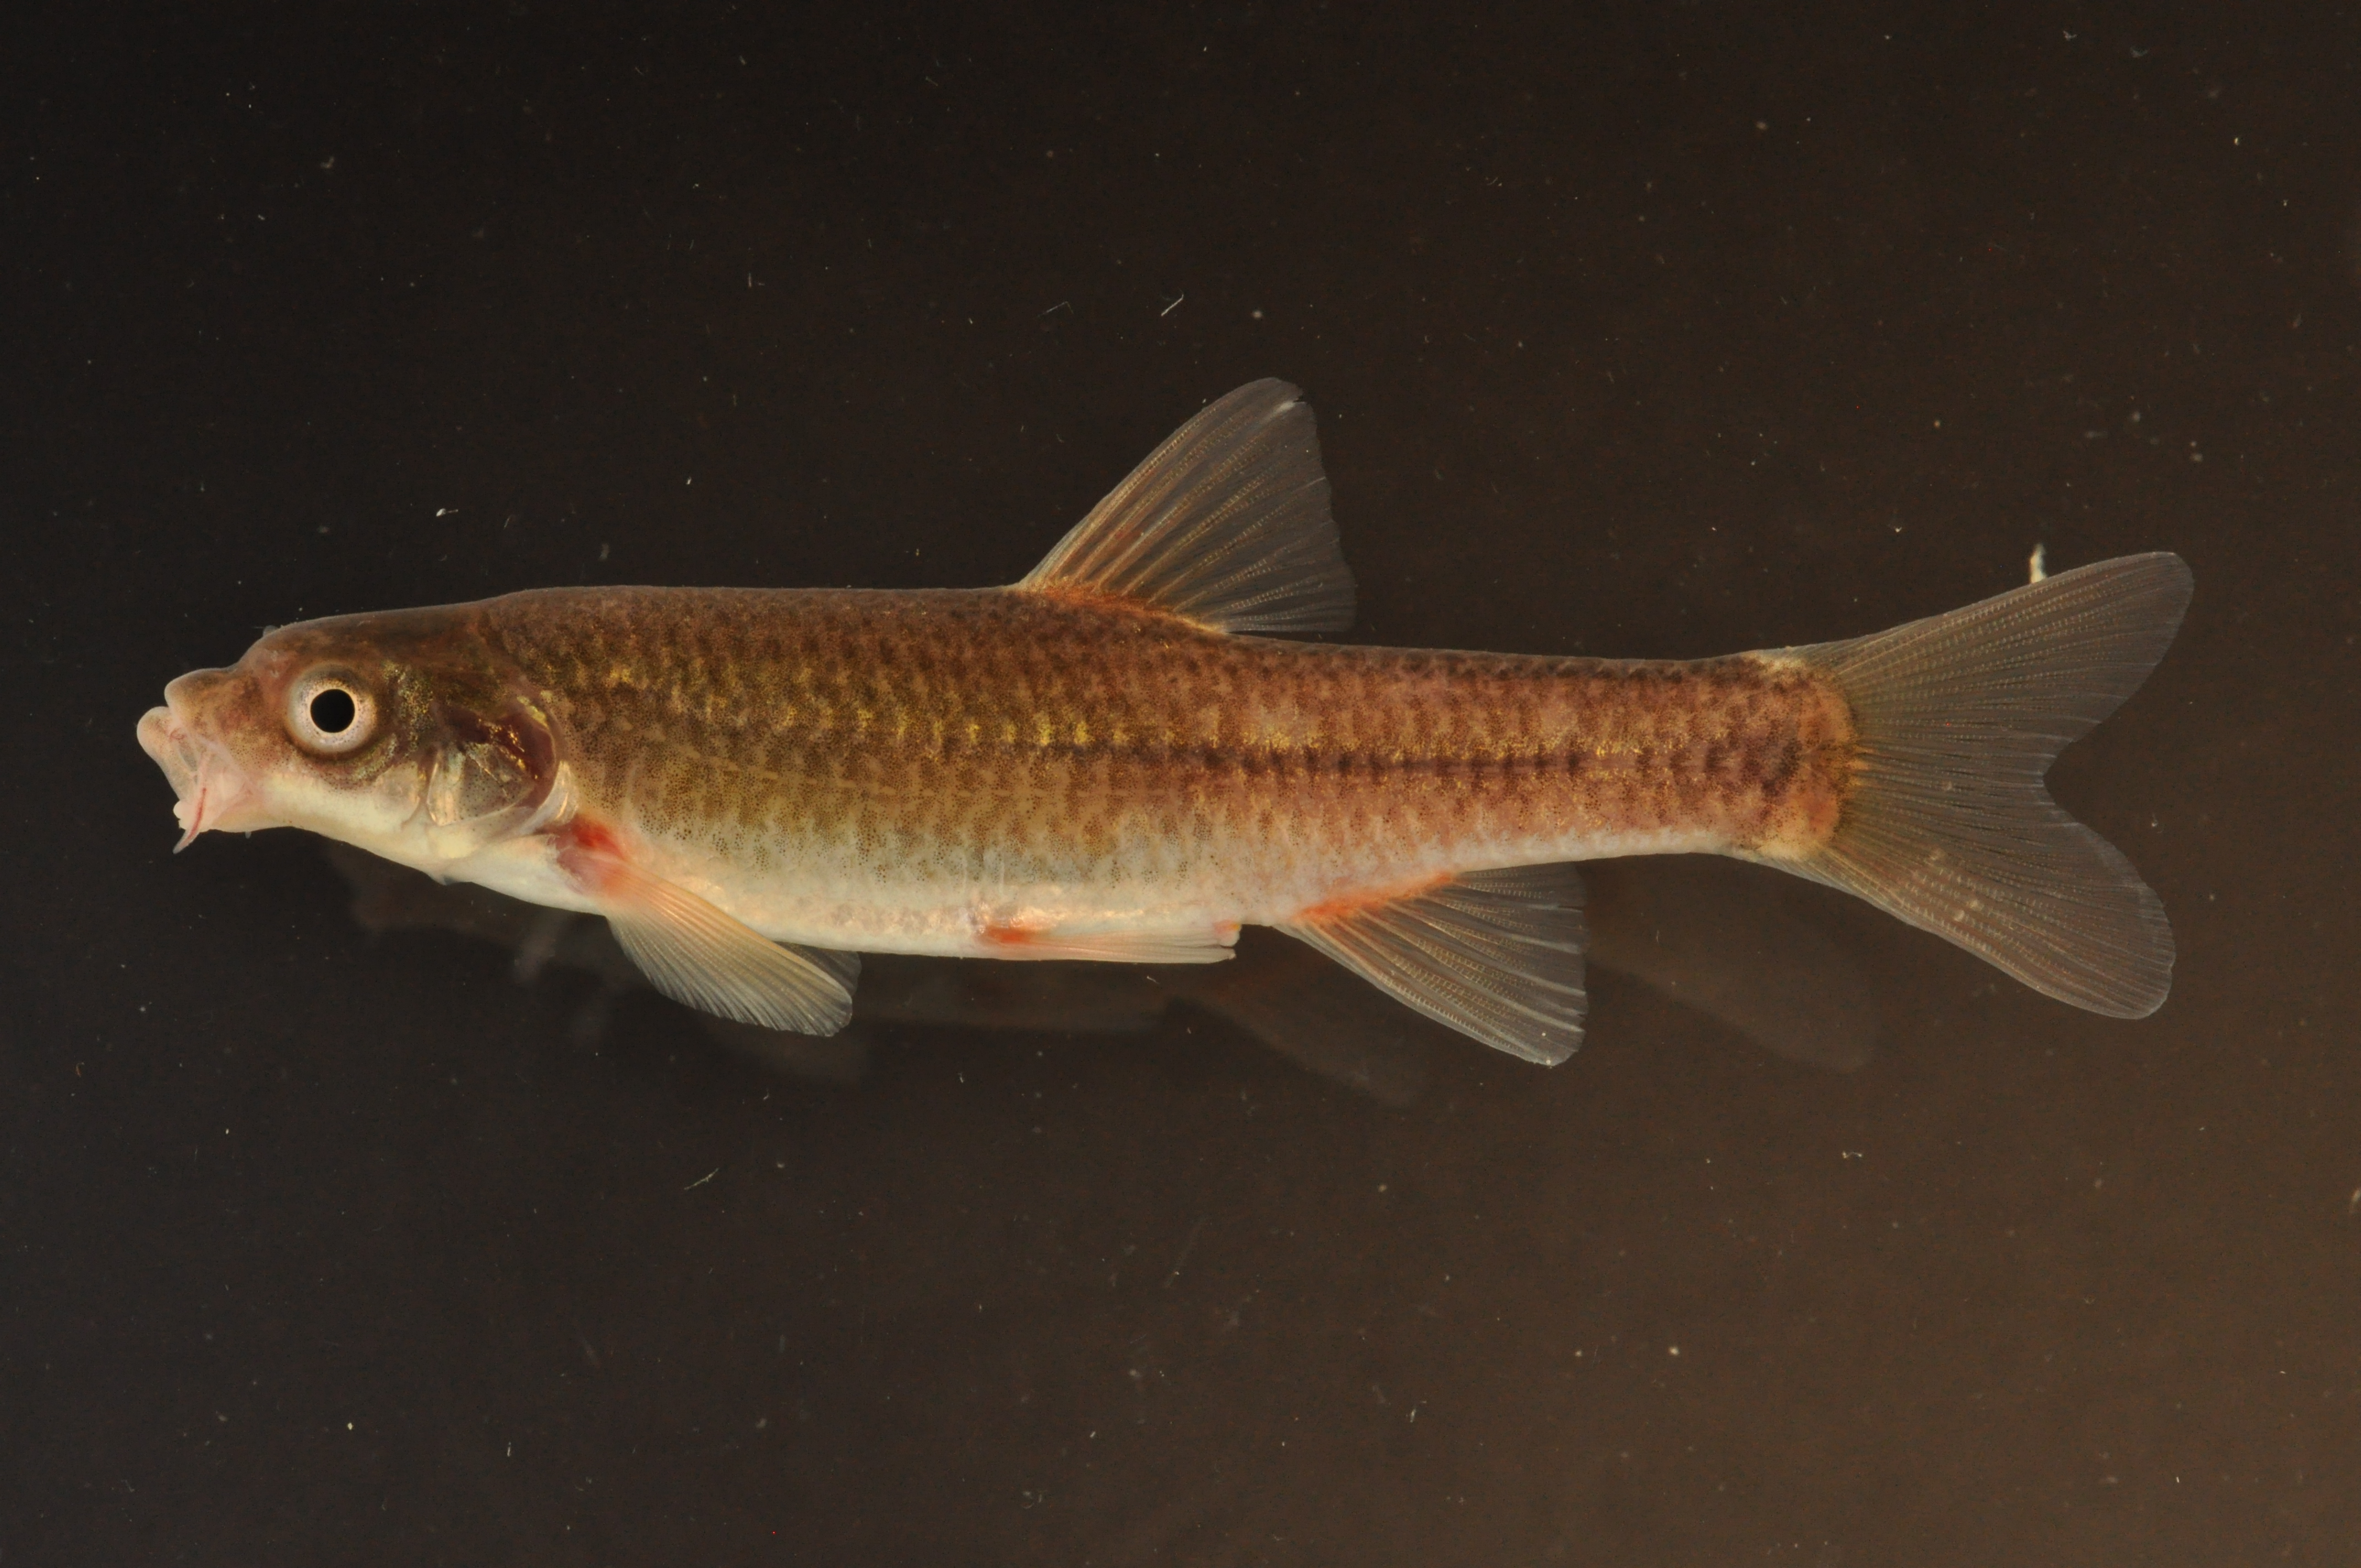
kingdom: Animalia
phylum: Chordata
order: Cypriniformes
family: Cyprinidae
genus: Pseudobarbus
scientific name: Pseudobarbus afer
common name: Eastern cape redfin
